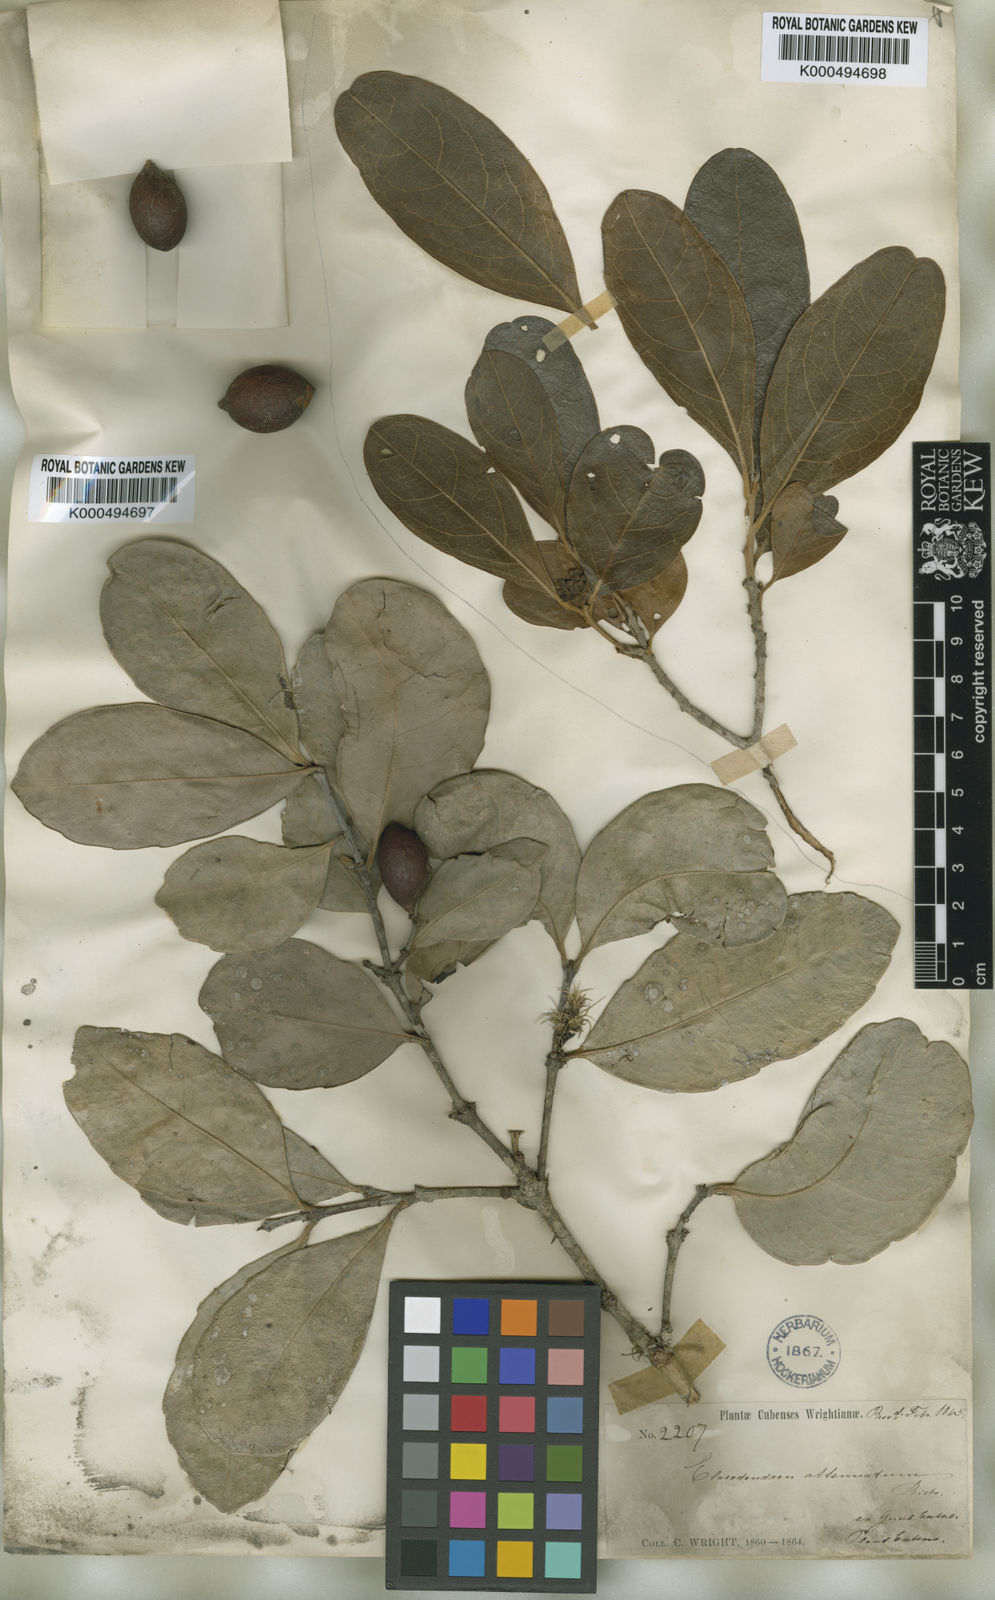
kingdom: Plantae
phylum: Tracheophyta
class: Magnoliopsida
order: Celastrales
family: Celastraceae
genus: Elaeodendron
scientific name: Elaeodendron xylocarpum
